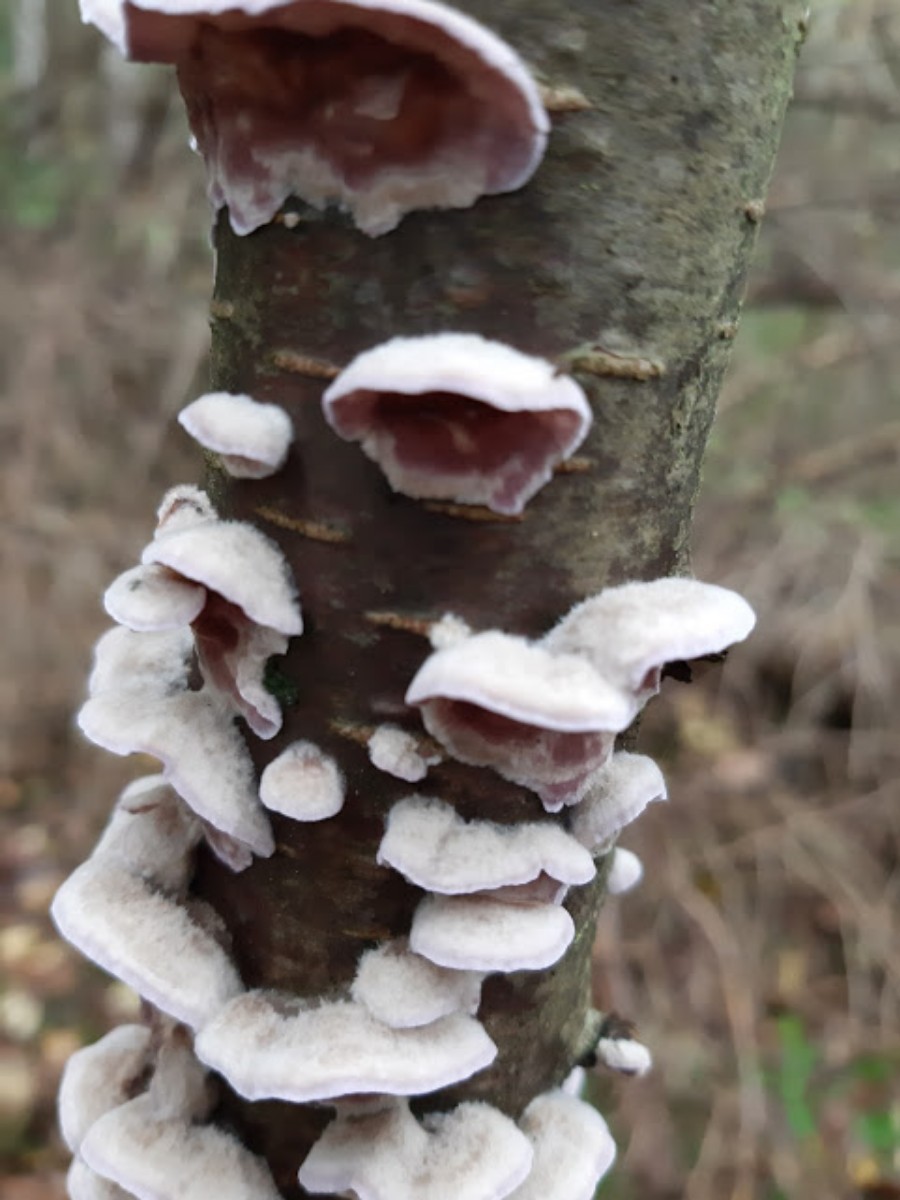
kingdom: Fungi
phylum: Basidiomycota
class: Agaricomycetes
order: Agaricales
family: Cyphellaceae
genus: Chondrostereum
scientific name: Chondrostereum purpureum
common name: purpurlædersvamp
